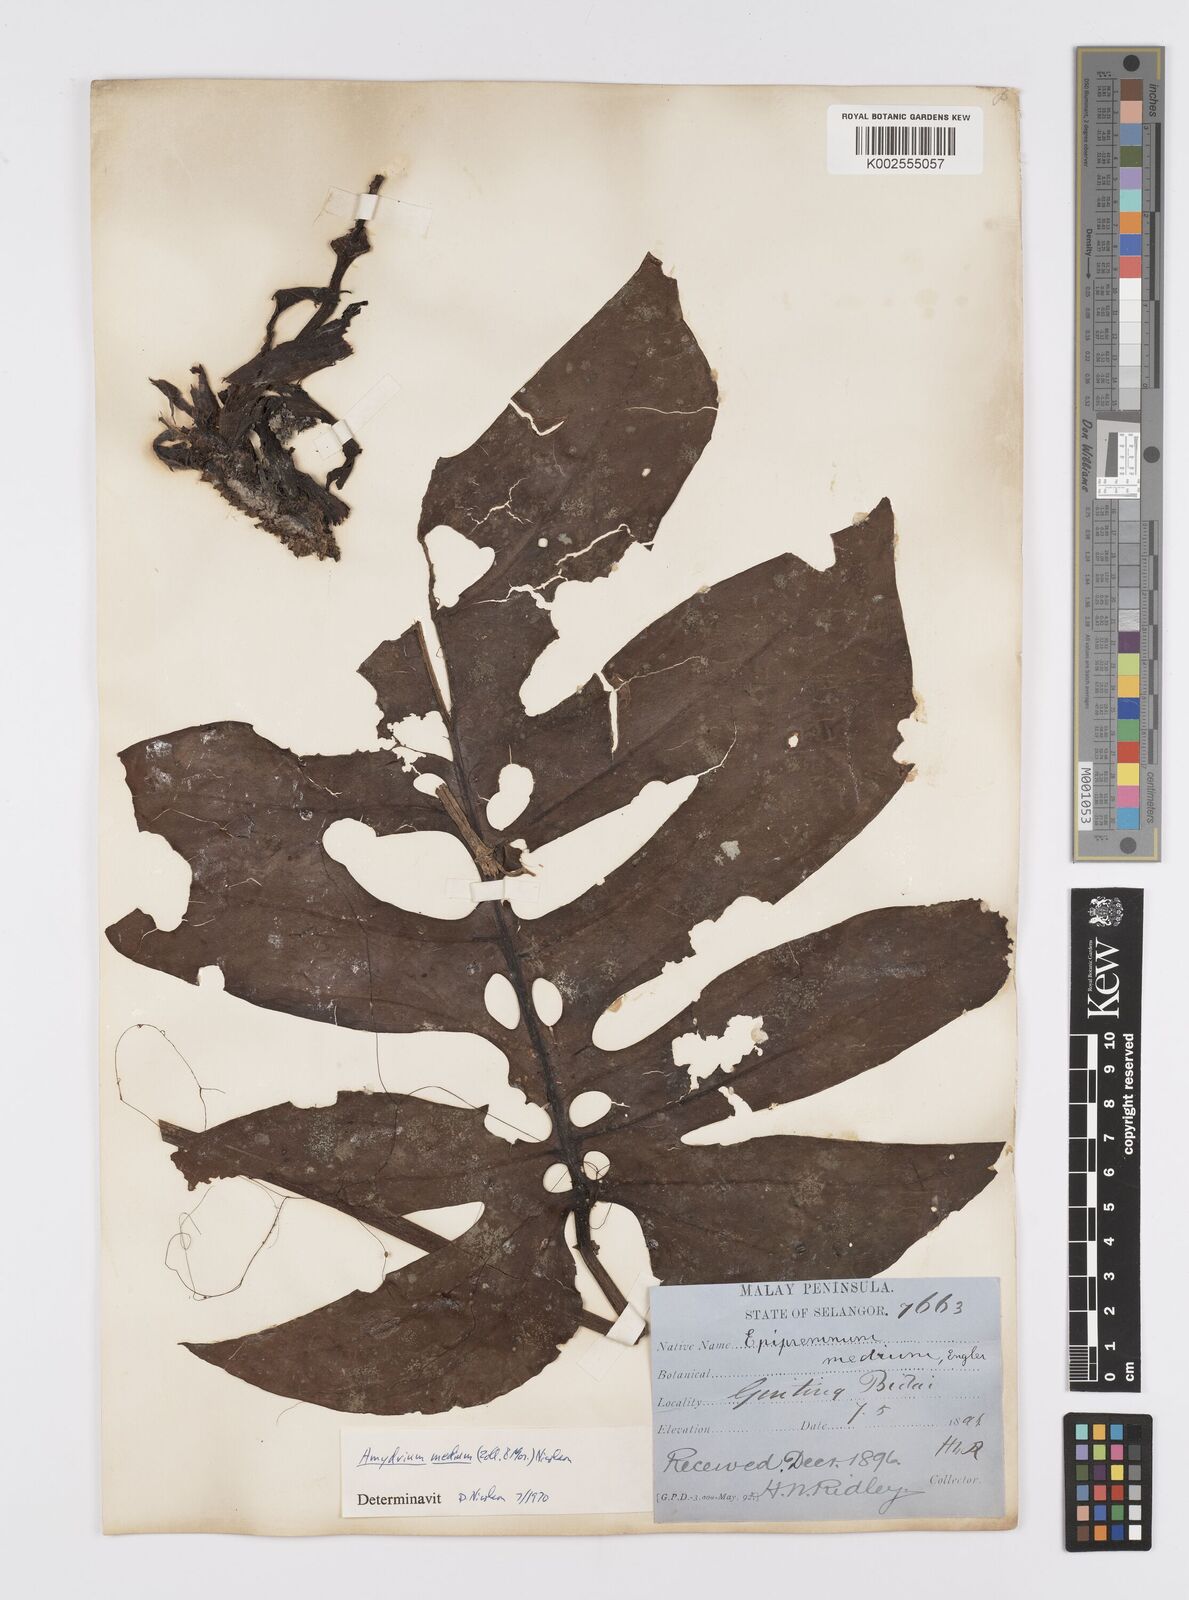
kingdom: Plantae
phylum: Tracheophyta
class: Liliopsida
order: Alismatales
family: Araceae
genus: Amydrium
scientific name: Amydrium medium
